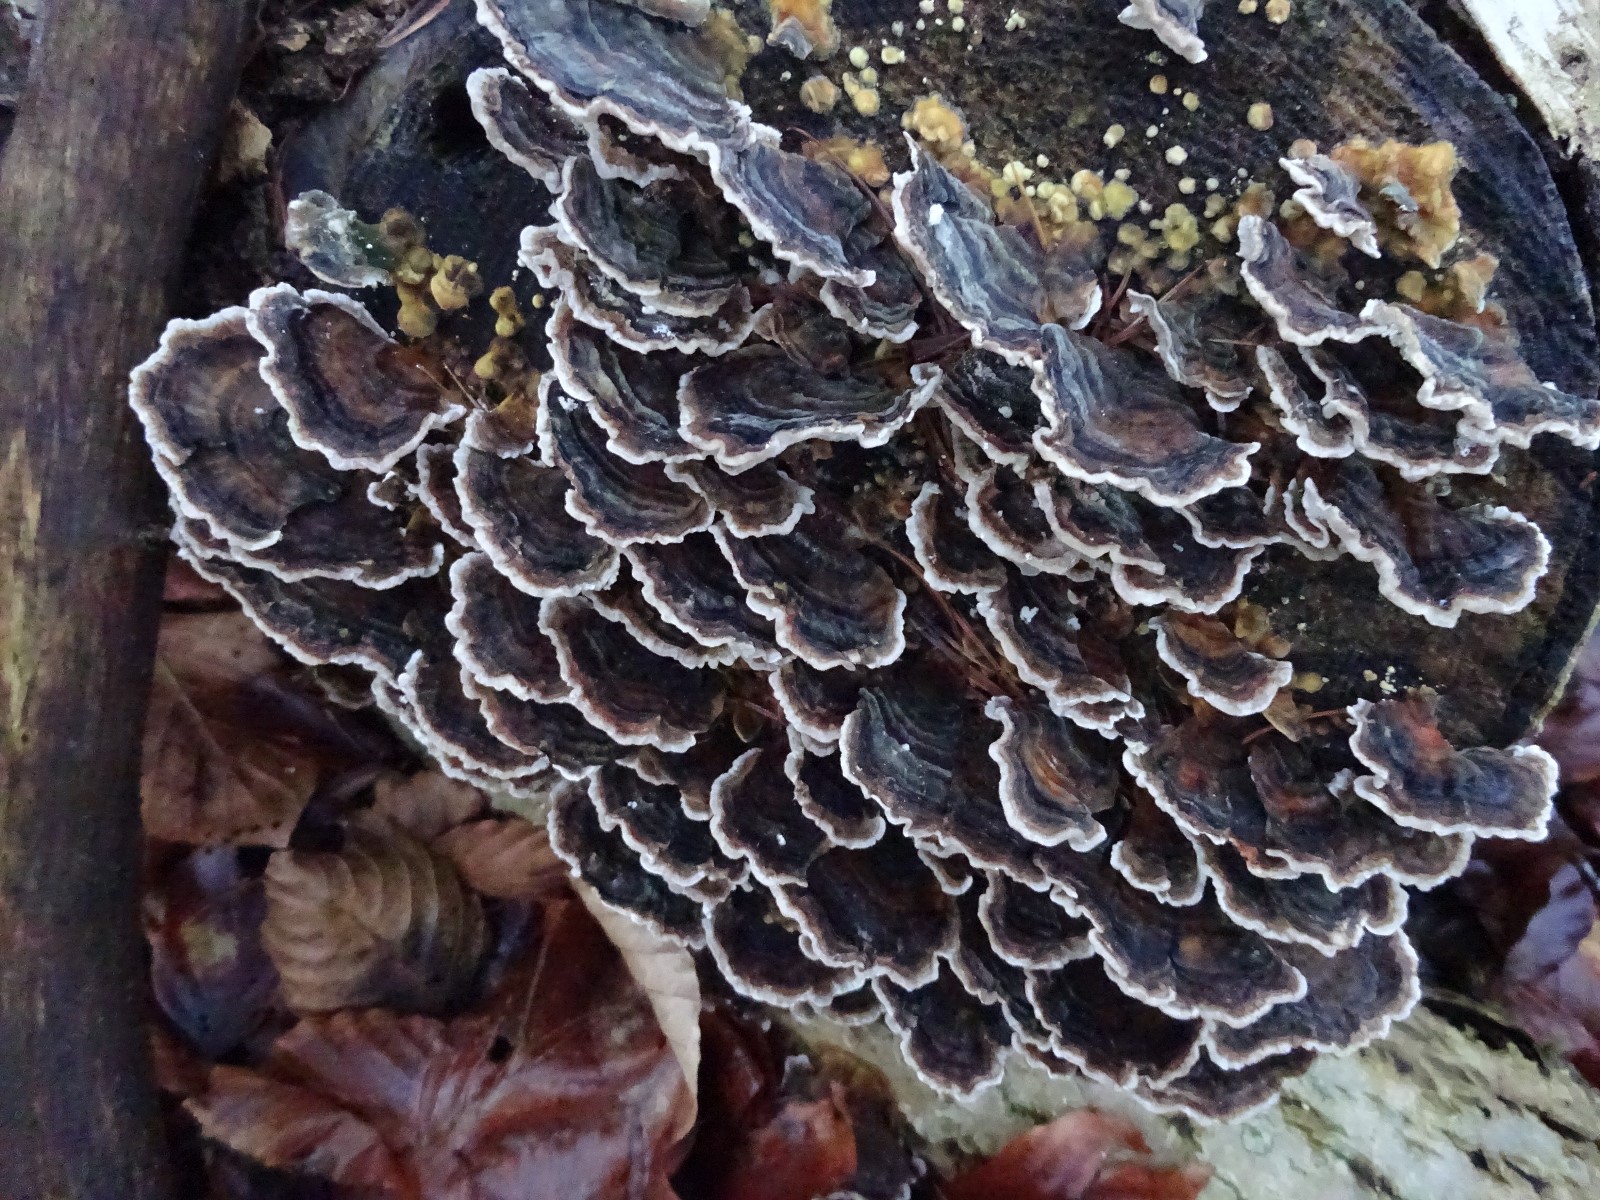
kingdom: Fungi
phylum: Basidiomycota
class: Agaricomycetes
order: Polyporales
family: Polyporaceae
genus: Trametes
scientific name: Trametes versicolor
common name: broget læderporesvamp
